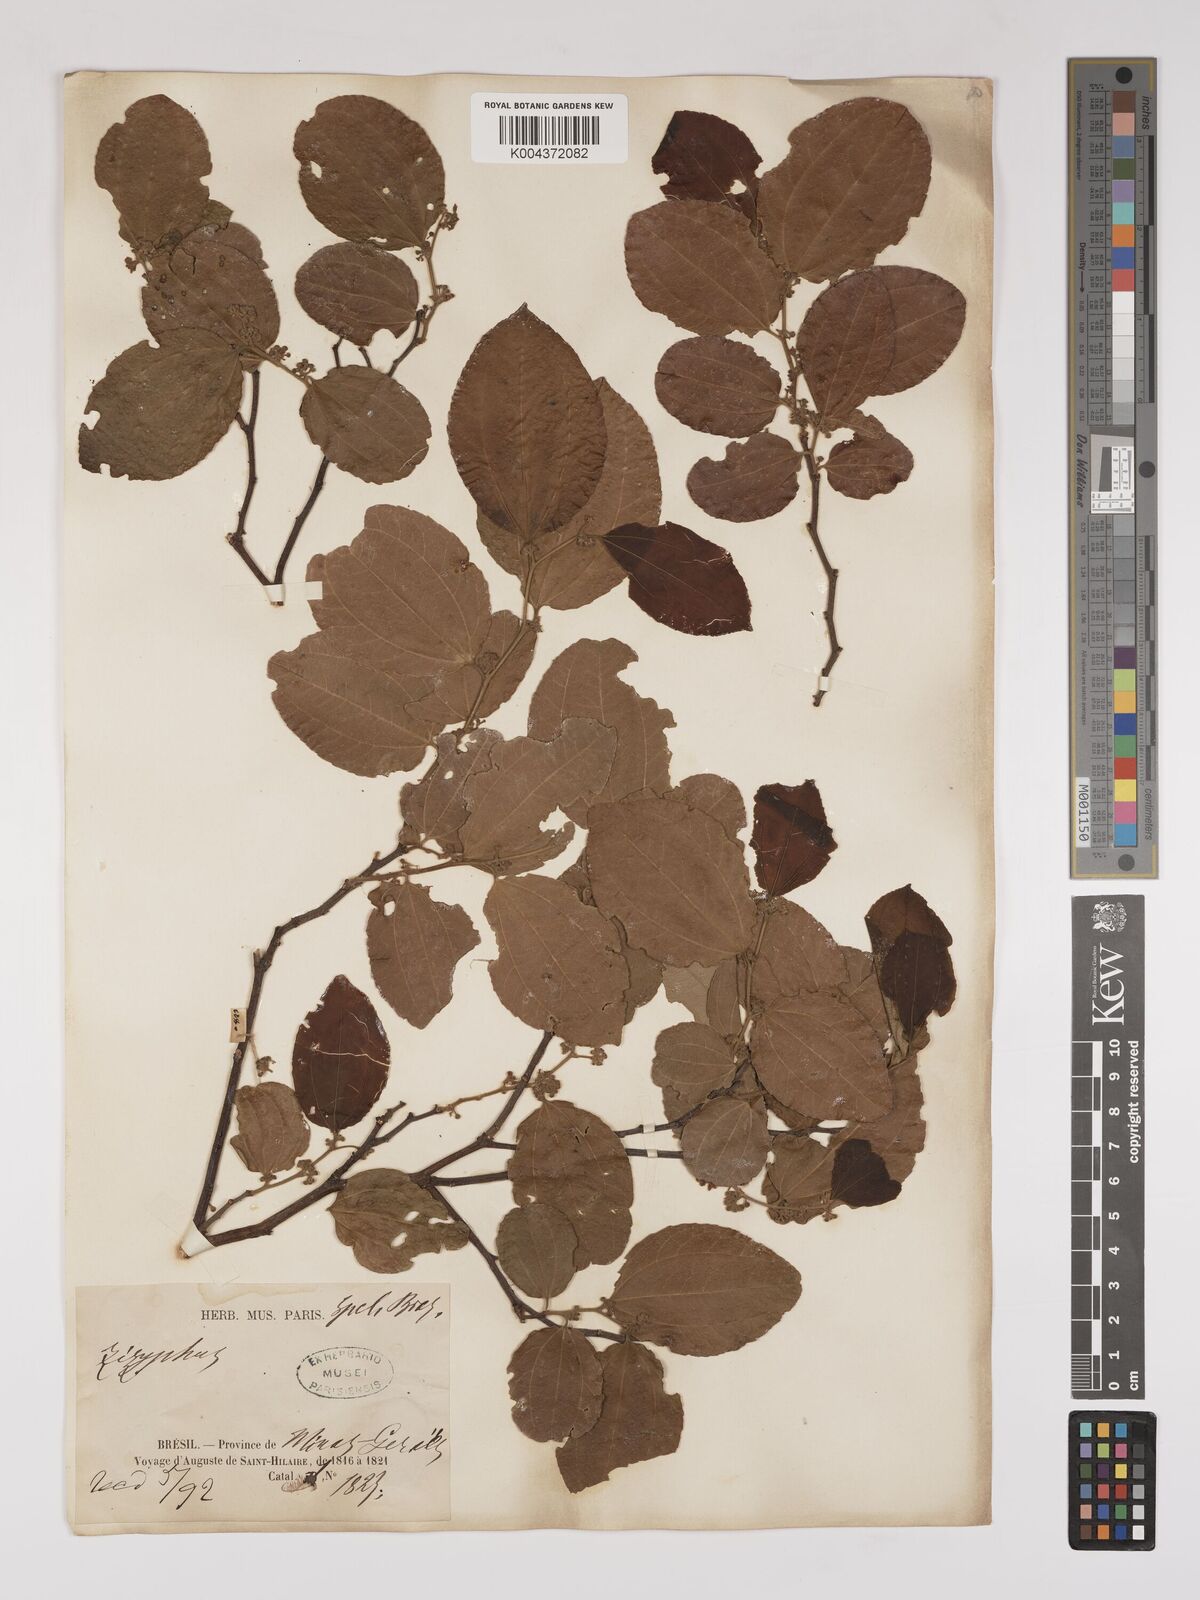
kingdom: Plantae
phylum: Tracheophyta
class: Magnoliopsida
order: Rosales
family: Rhamnaceae
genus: Sarcomphalus
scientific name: Sarcomphalus cotinifolius
